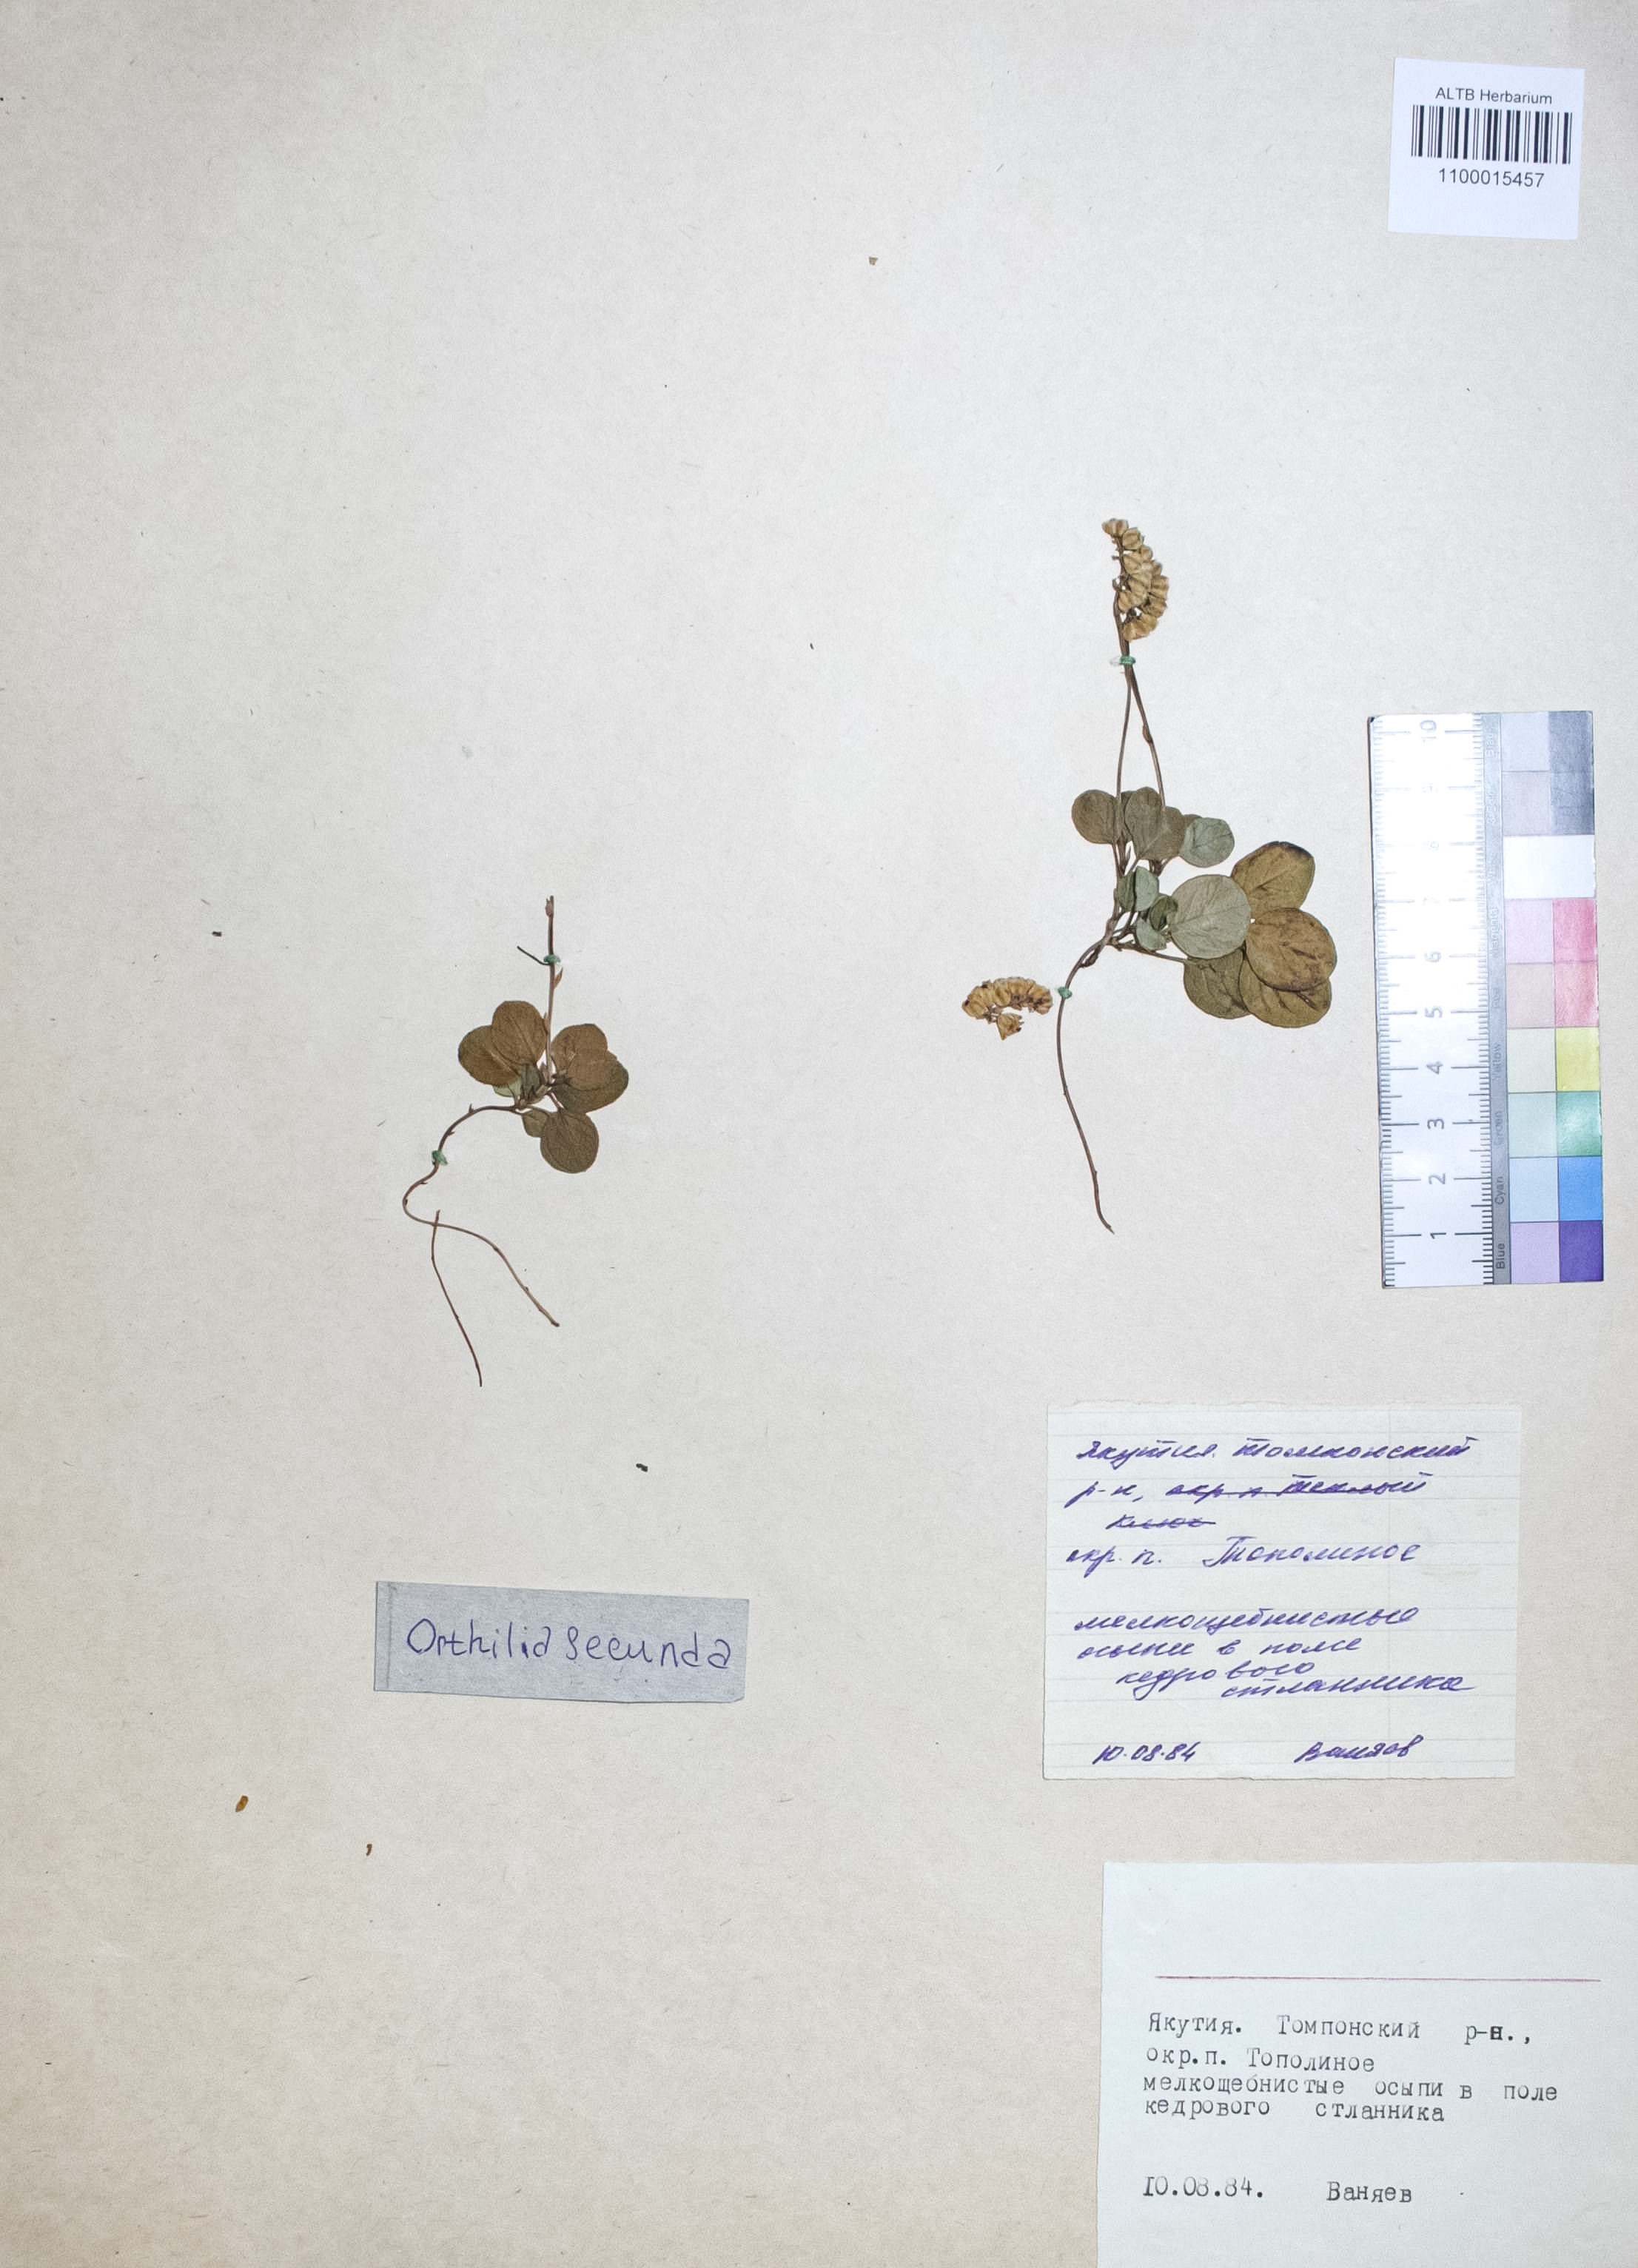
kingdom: Plantae
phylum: Tracheophyta
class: Magnoliopsida
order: Ericales
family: Ericaceae
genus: Orthilia
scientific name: Orthilia secunda
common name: One-sided orthilia
